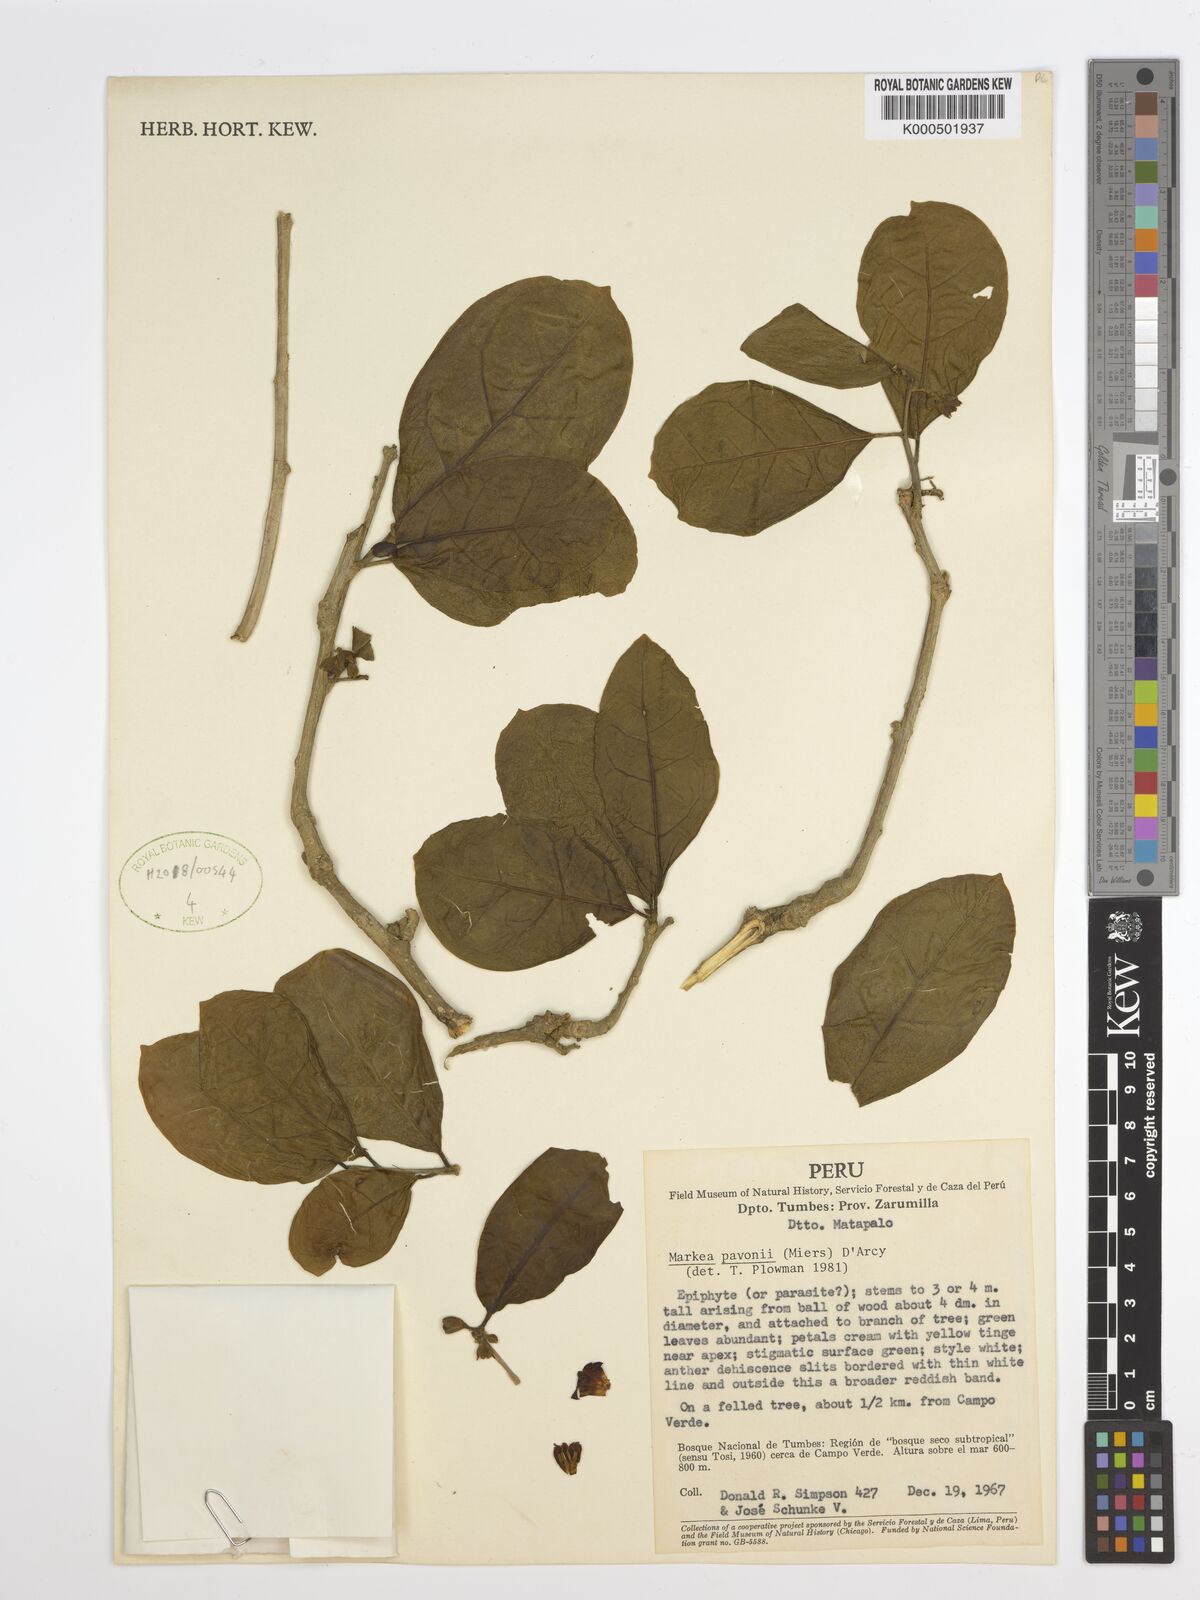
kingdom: Plantae
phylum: Tracheophyta
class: Magnoliopsida
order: Solanales
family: Solanaceae
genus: Markea
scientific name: Markea pavonii
